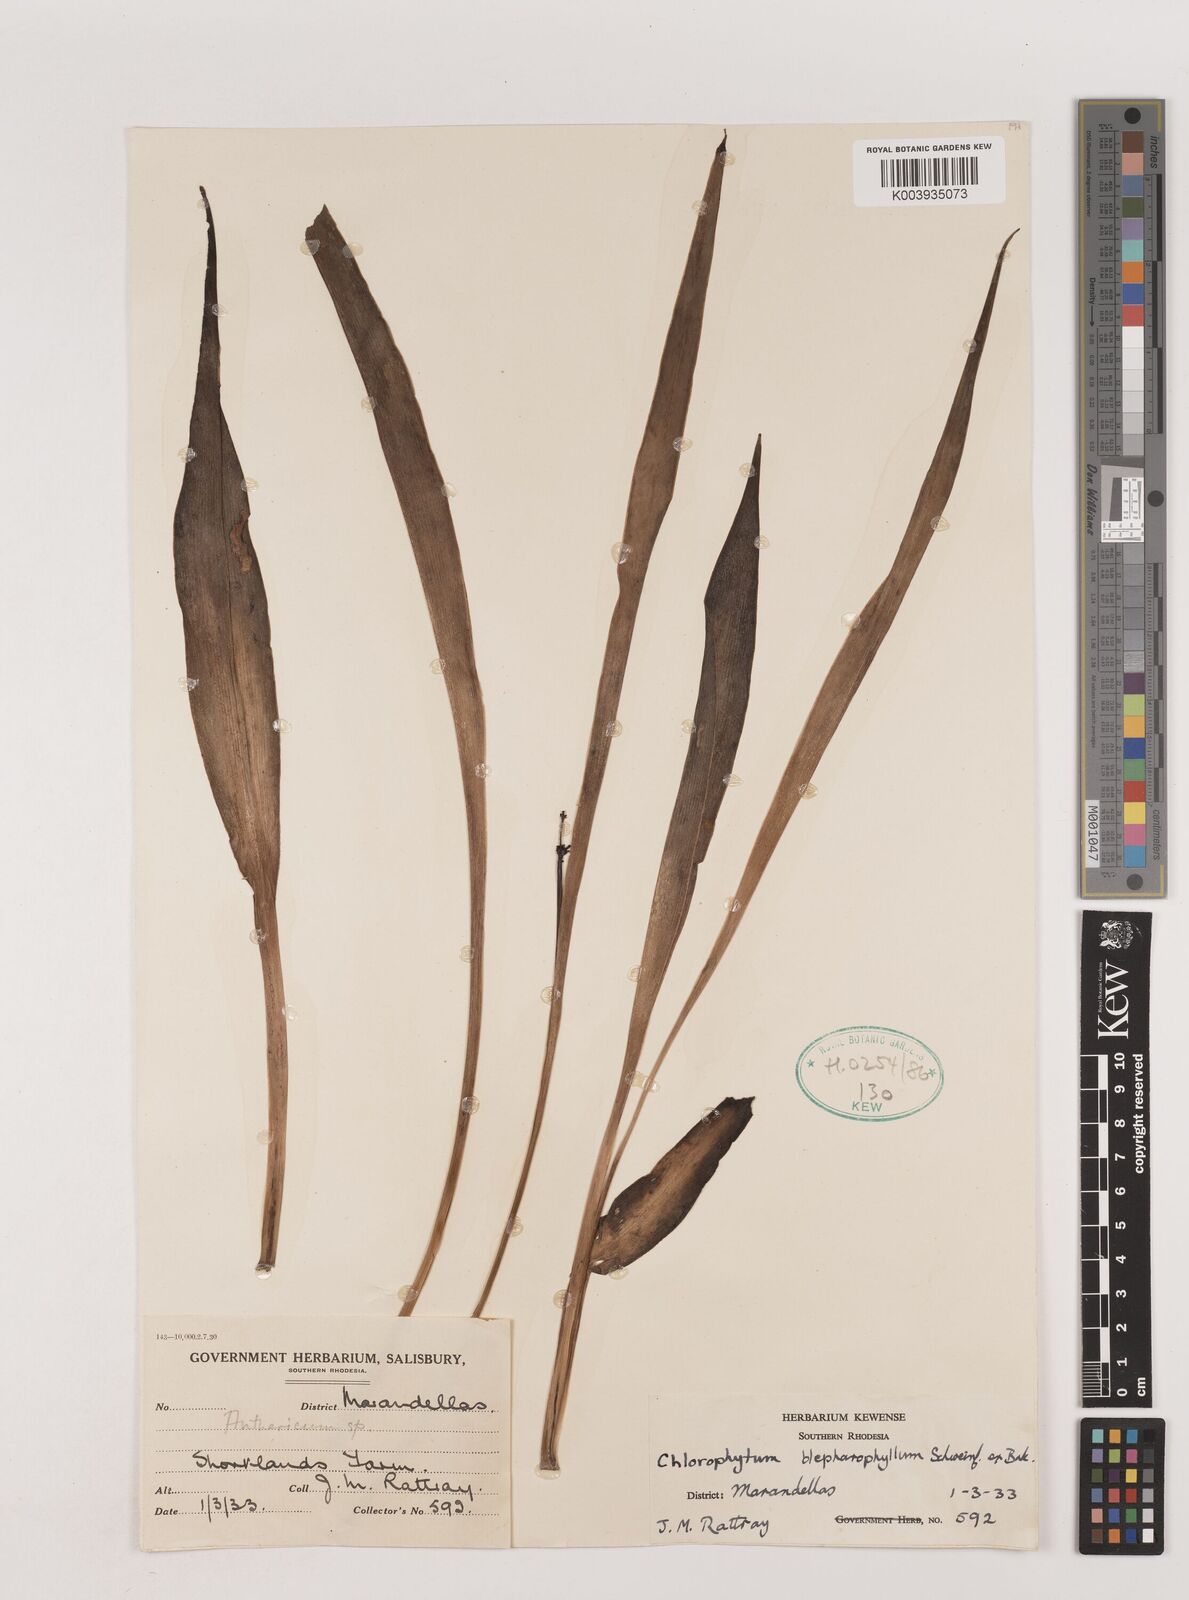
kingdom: Plantae
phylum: Tracheophyta
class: Liliopsida
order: Asparagales
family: Asparagaceae
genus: Chlorophytum
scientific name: Chlorophytum blepharophyllum
